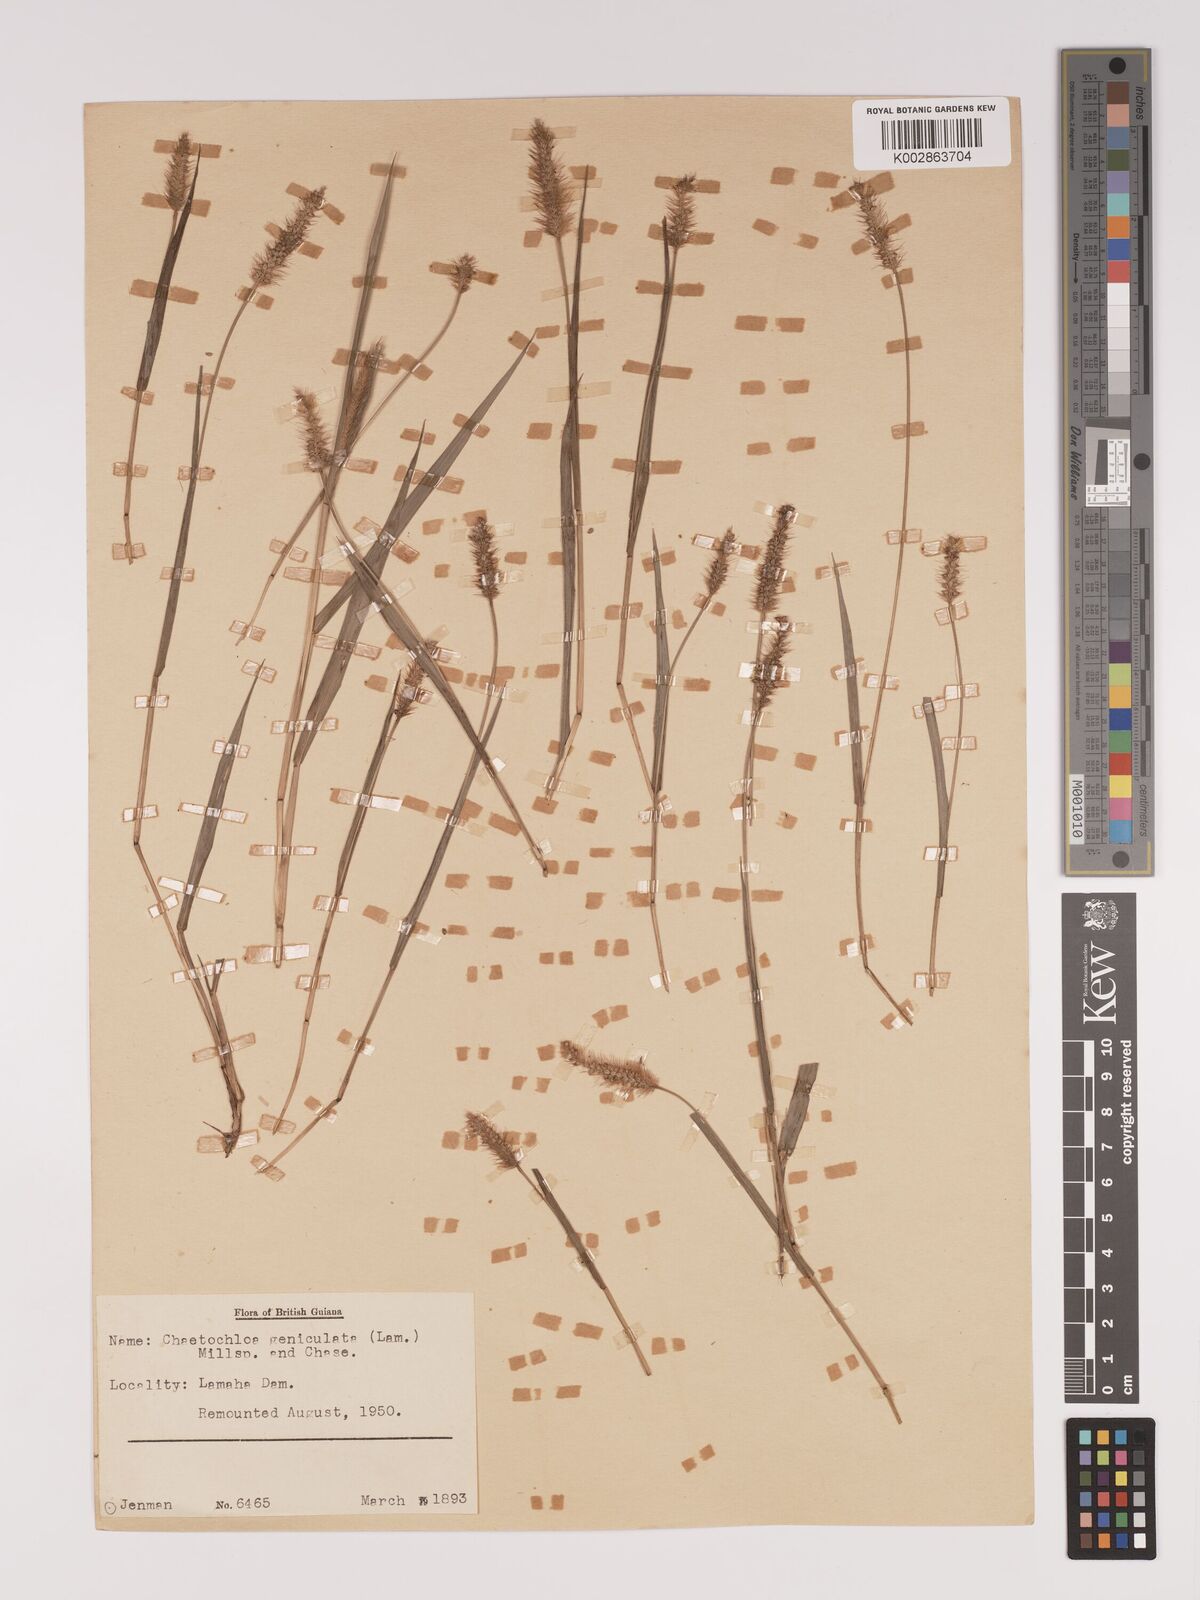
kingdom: Plantae
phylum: Tracheophyta
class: Liliopsida
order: Poales
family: Poaceae
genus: Setaria
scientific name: Setaria parviflora
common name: Knotroot bristle-grass
